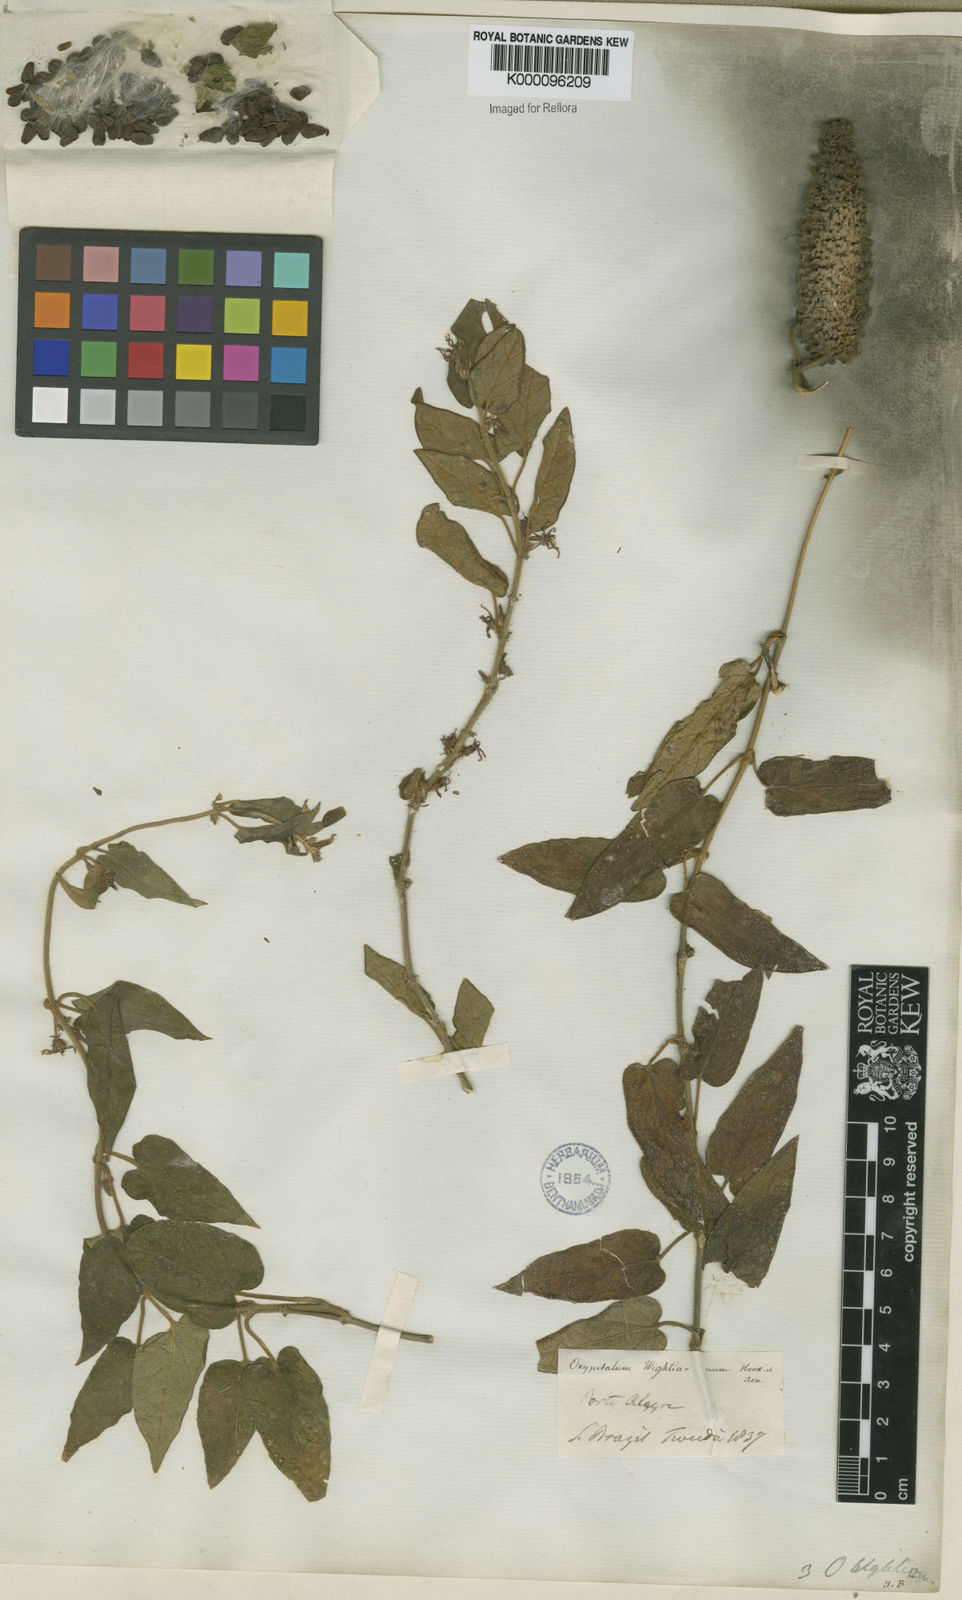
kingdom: Plantae
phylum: Tracheophyta
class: Magnoliopsida
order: Gentianales
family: Apocynaceae
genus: Oxypetalum
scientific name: Oxypetalum wightianum
